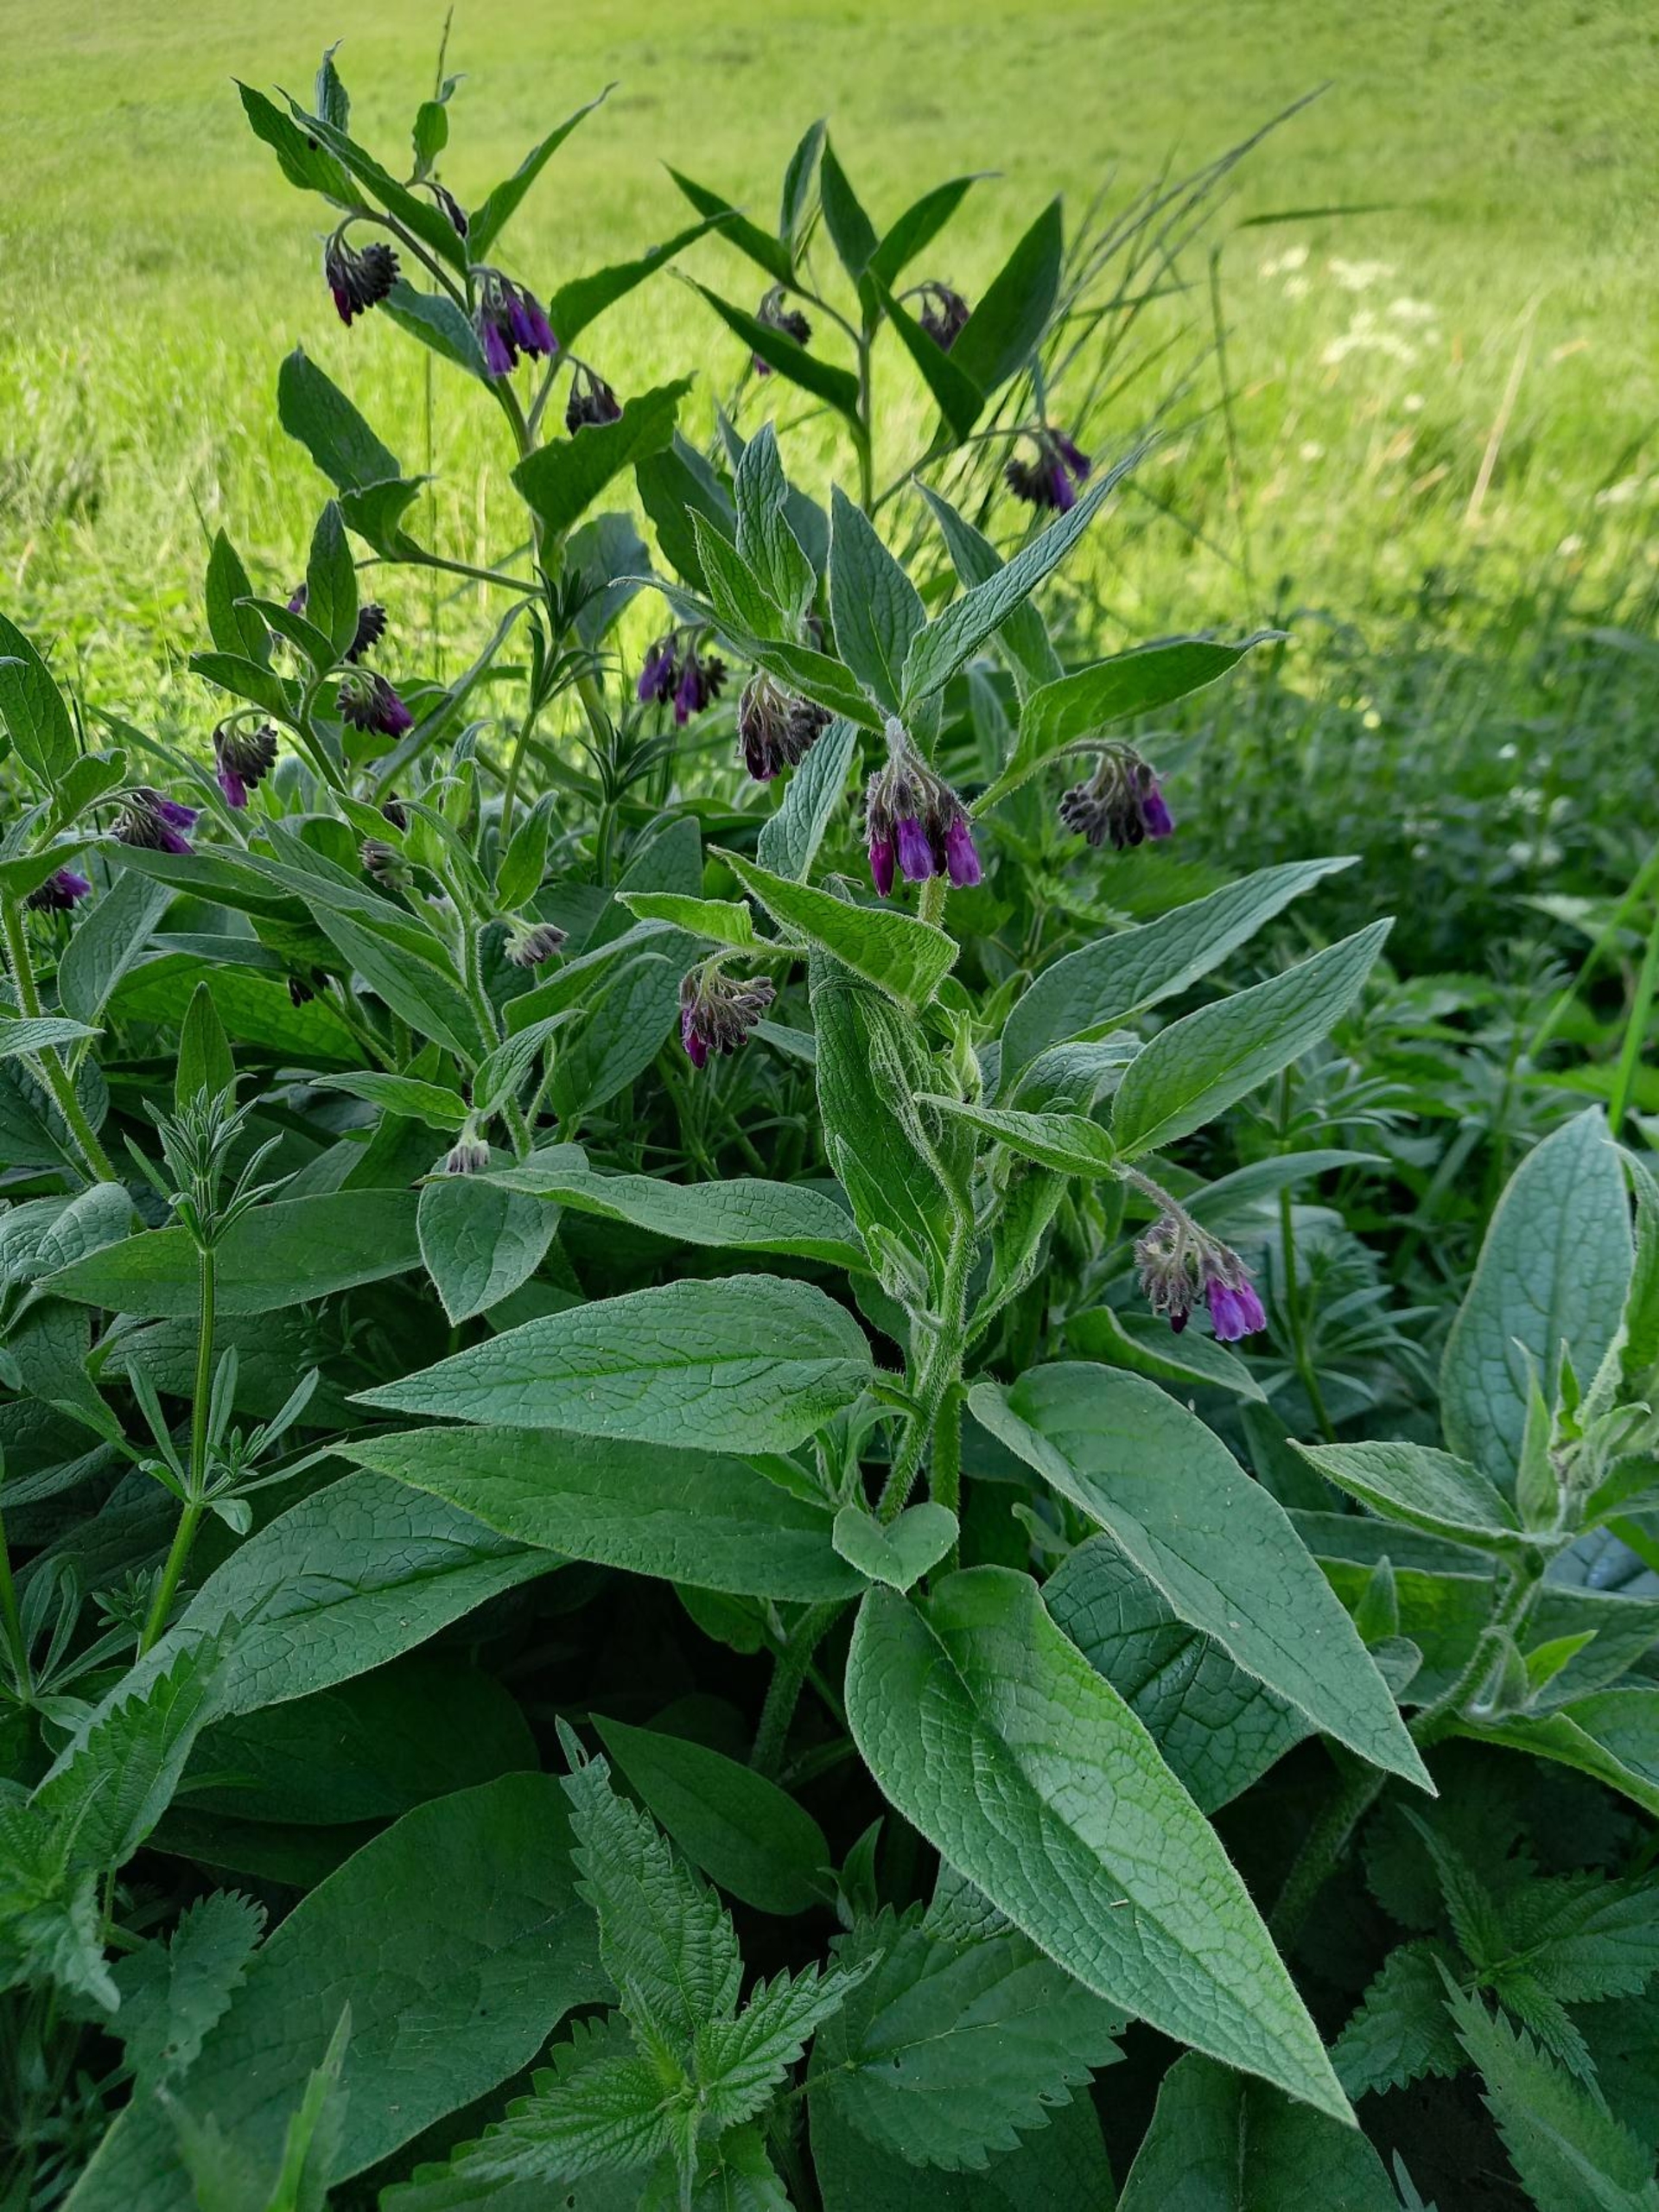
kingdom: Plantae
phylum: Tracheophyta
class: Magnoliopsida
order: Boraginales
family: Boraginaceae
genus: Symphytum
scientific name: Symphytum uplandicum
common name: Foder-kulsukker
